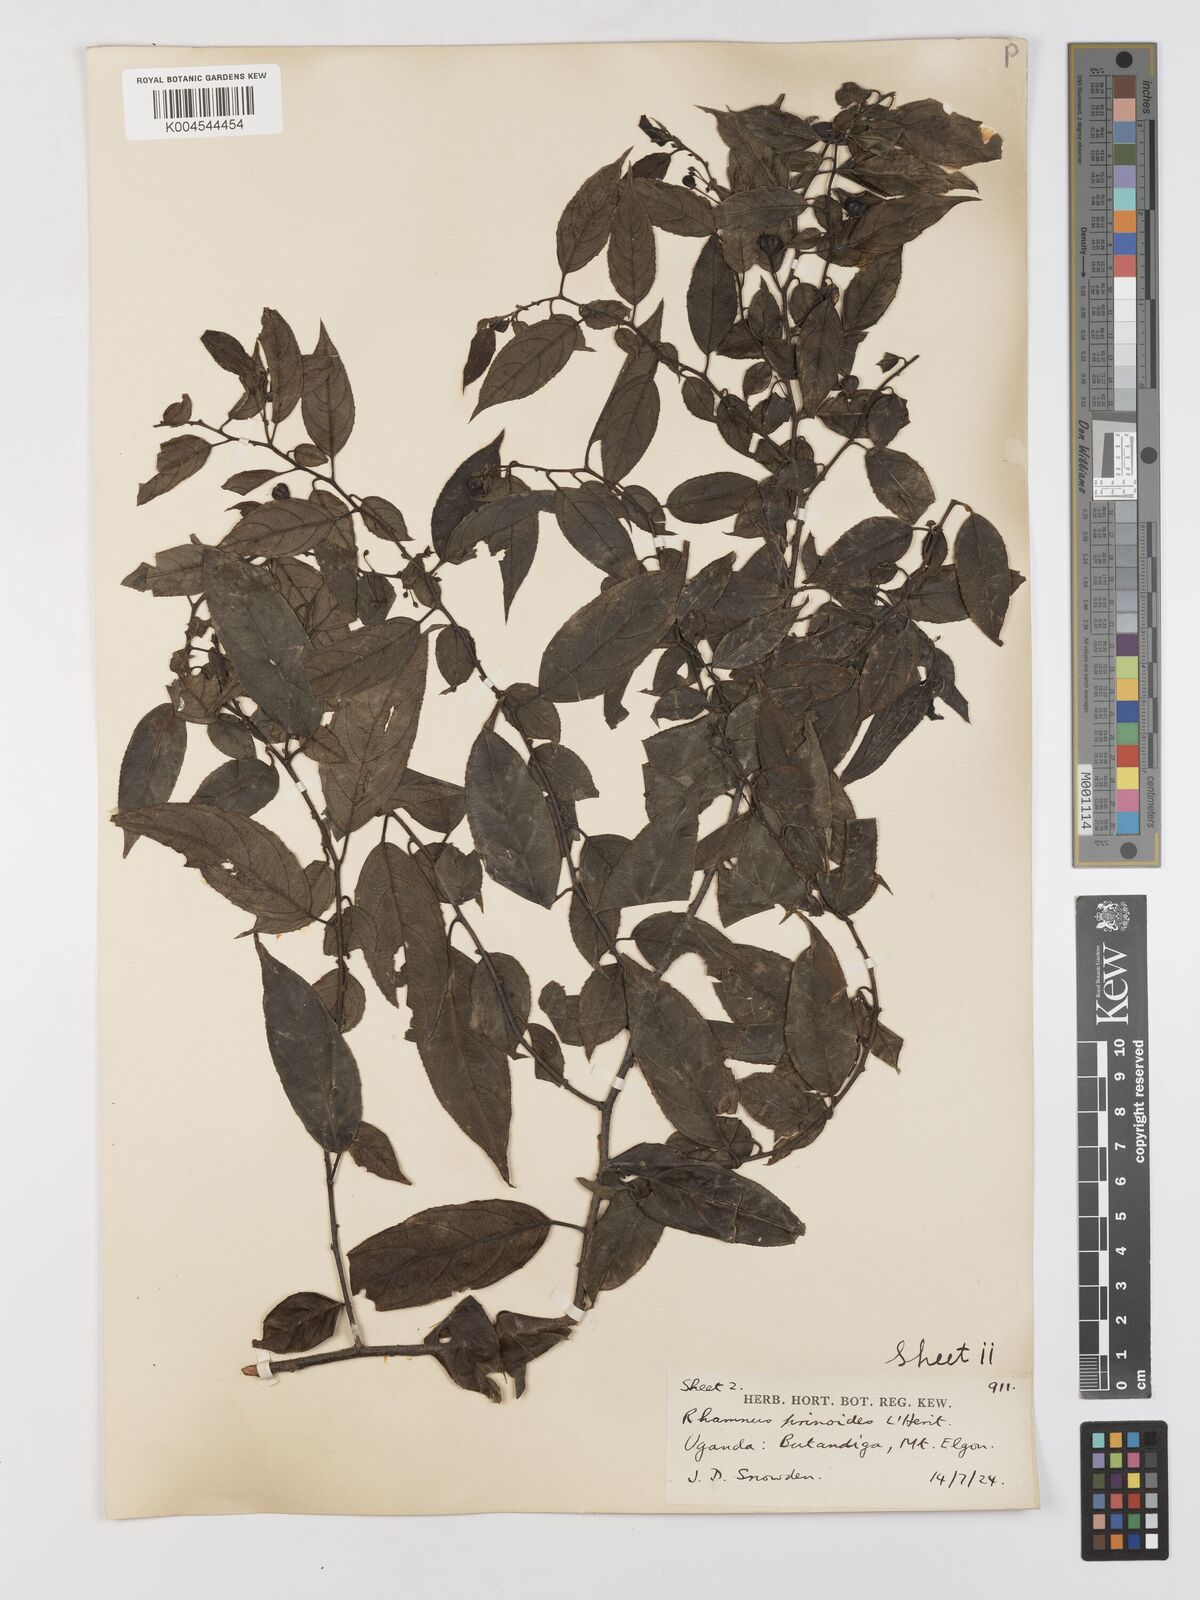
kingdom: Plantae
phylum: Tracheophyta
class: Magnoliopsida
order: Rosales
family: Rhamnaceae
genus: Rhamnus
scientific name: Rhamnus prinoides
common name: Dogwood
